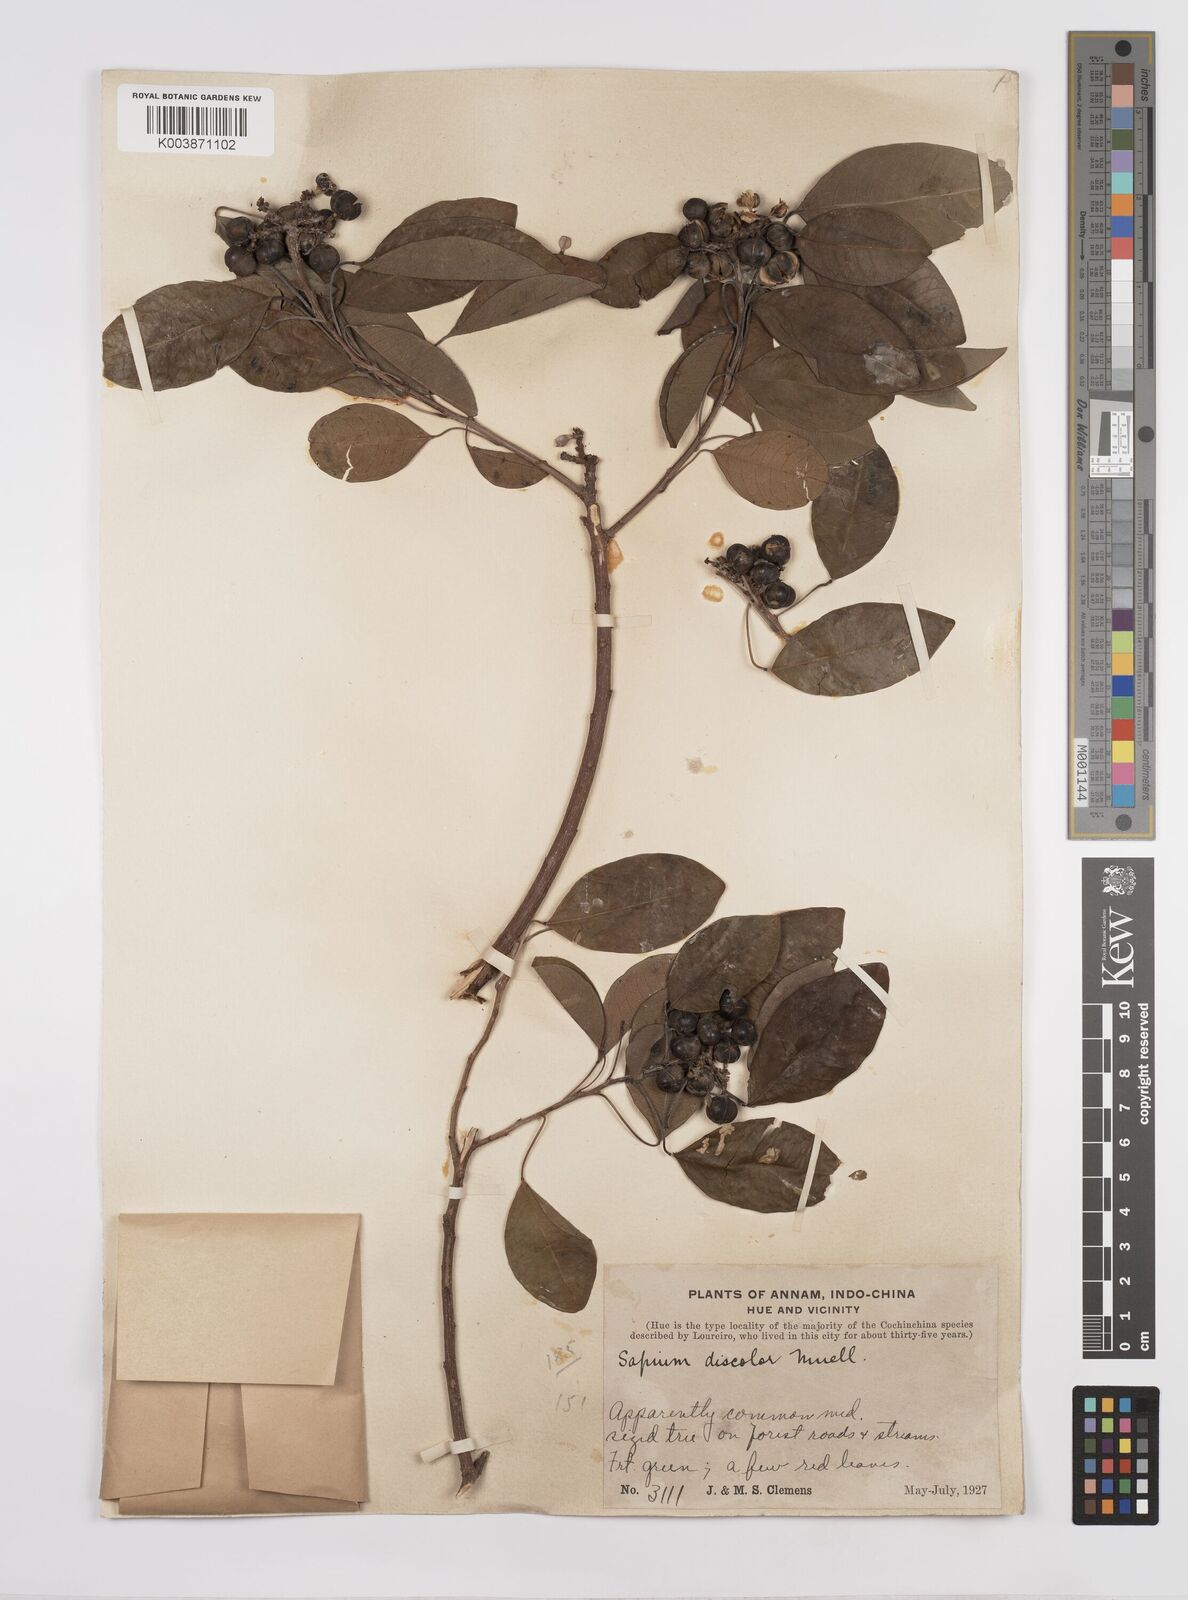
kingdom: Plantae
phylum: Tracheophyta
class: Magnoliopsida
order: Malpighiales
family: Euphorbiaceae
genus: Triadica
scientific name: Triadica cochinchinensis
